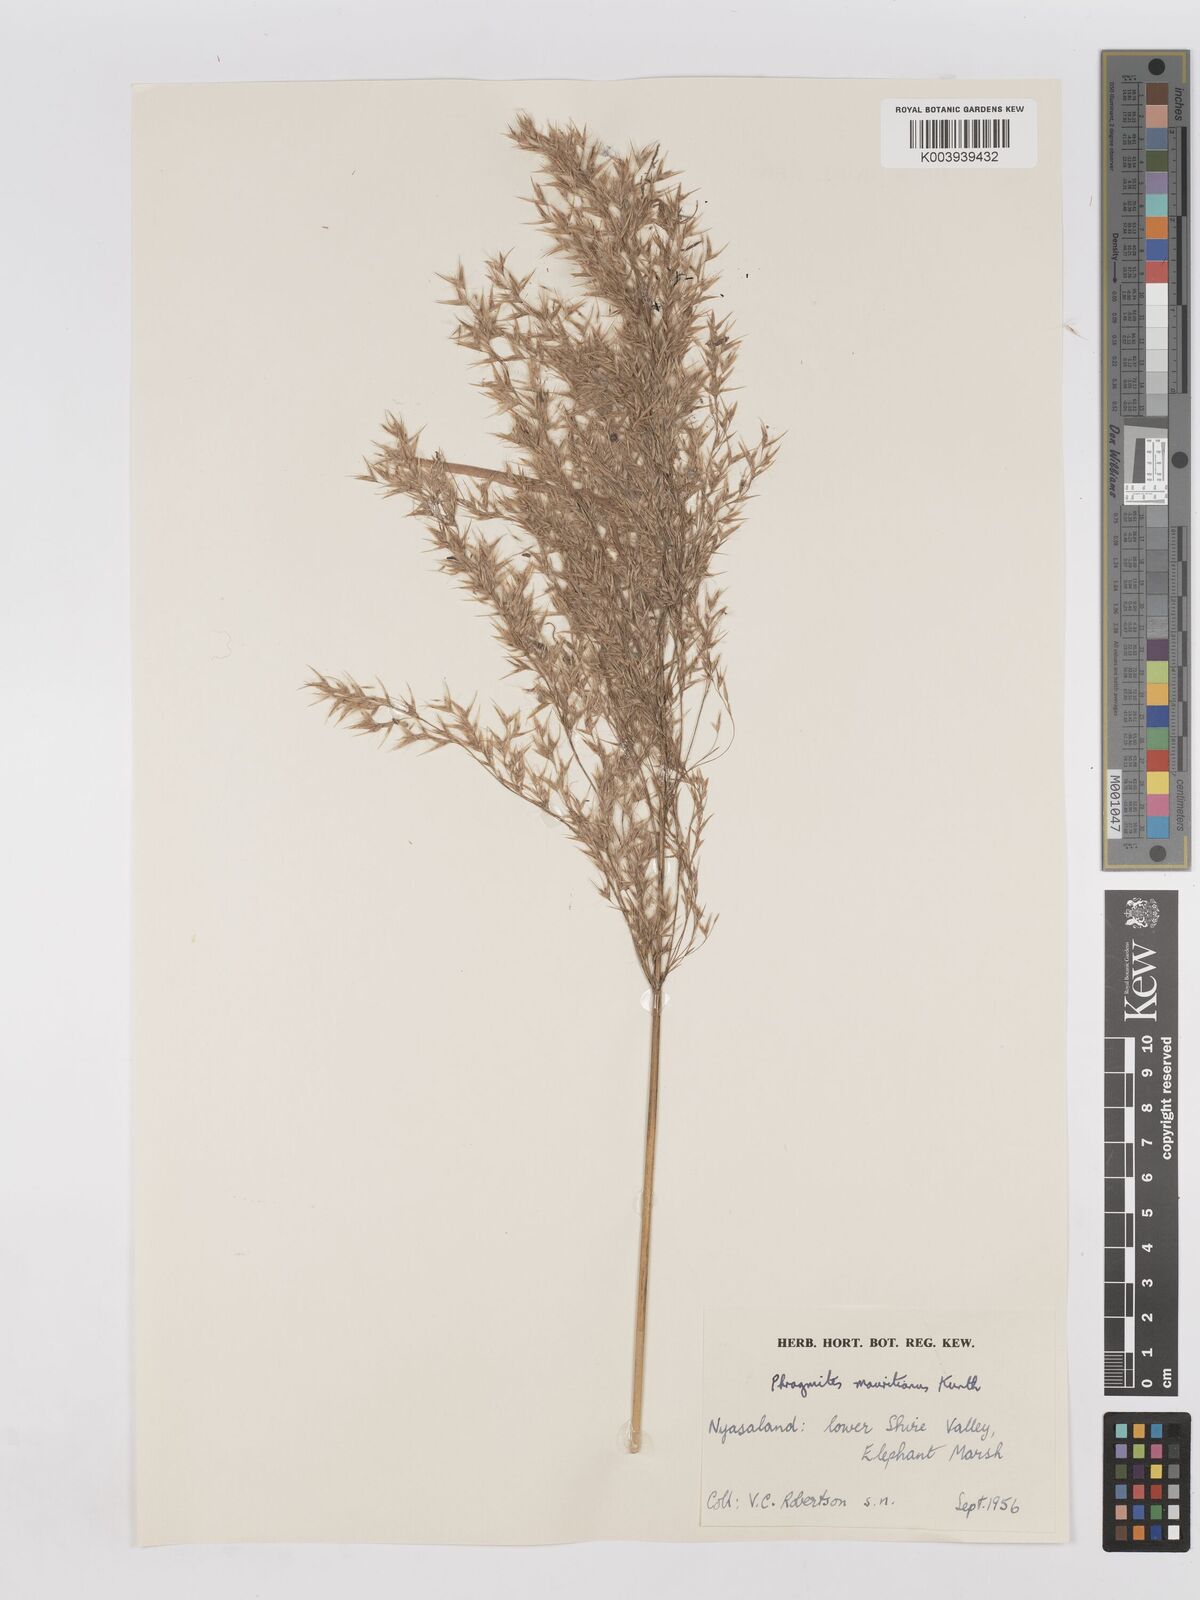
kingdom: Plantae
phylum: Tracheophyta
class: Liliopsida
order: Poales
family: Poaceae
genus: Phragmites
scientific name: Phragmites mauritianus
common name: Reed grass
